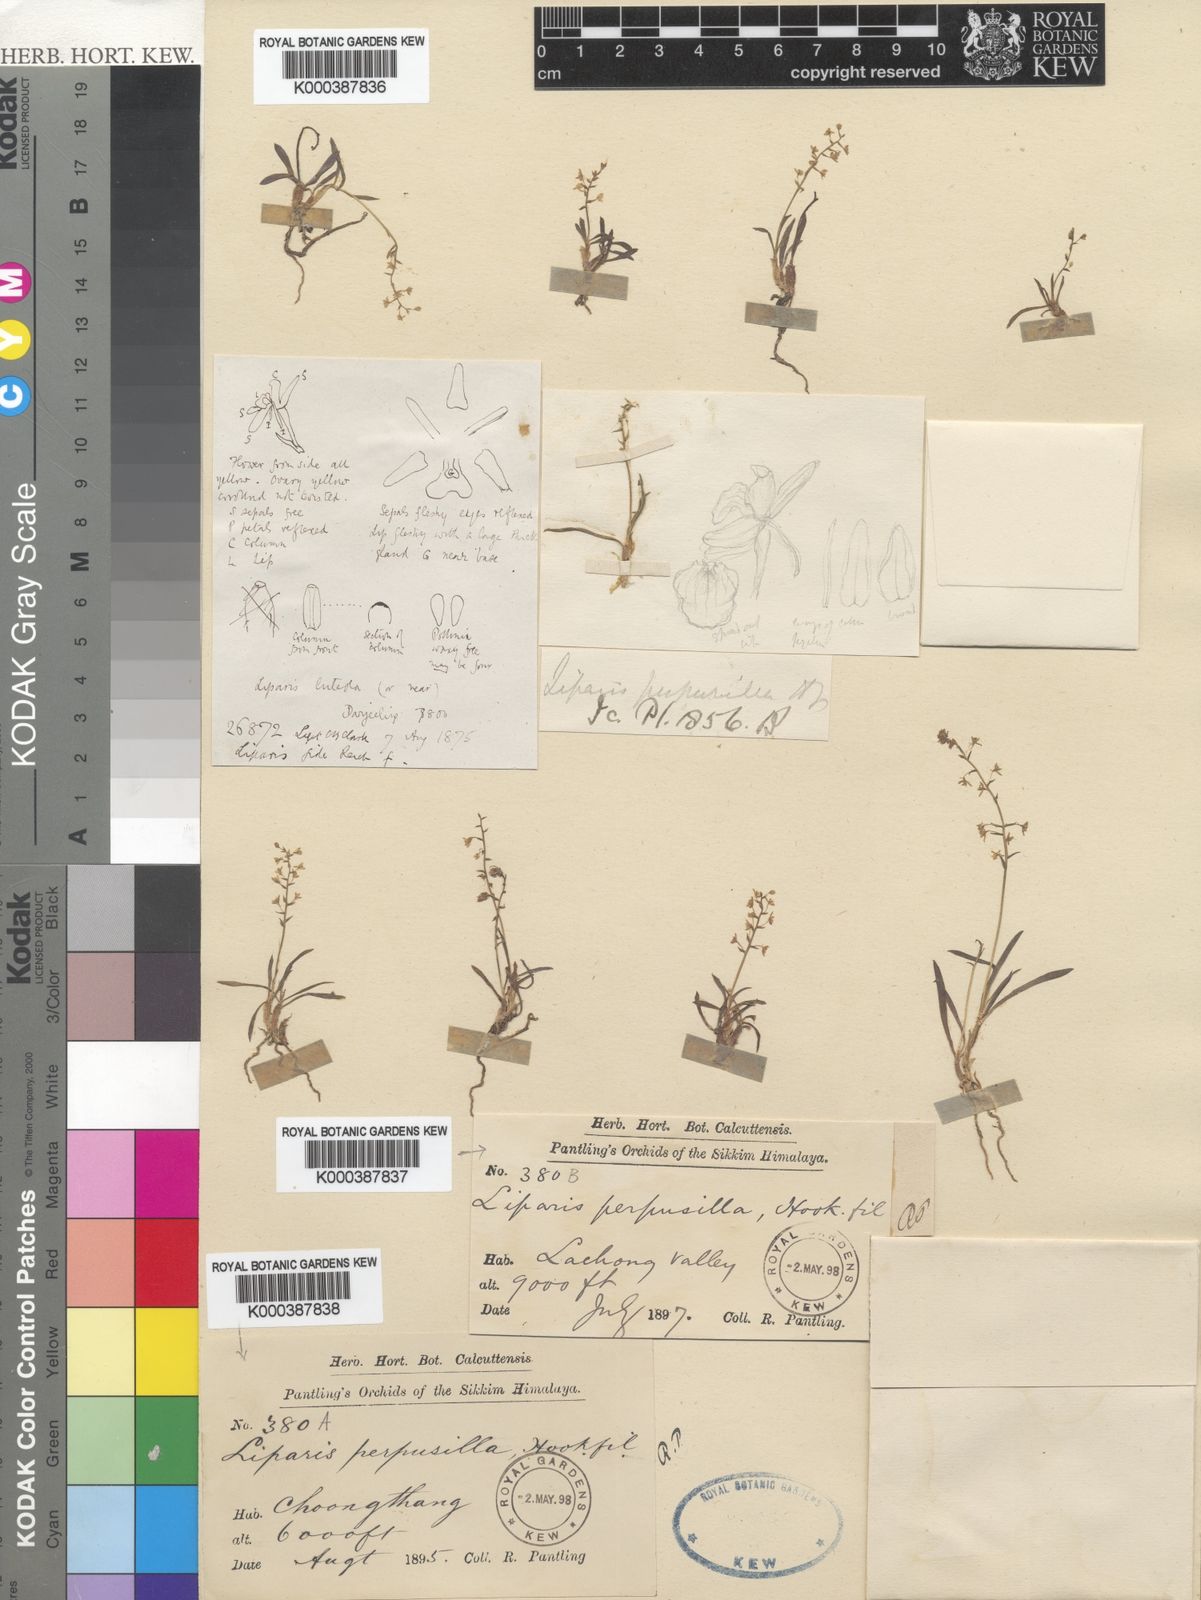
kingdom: Plantae
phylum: Tracheophyta
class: Liliopsida
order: Asparagales
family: Orchidaceae
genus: Liparis
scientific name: Liparis perpusilla
